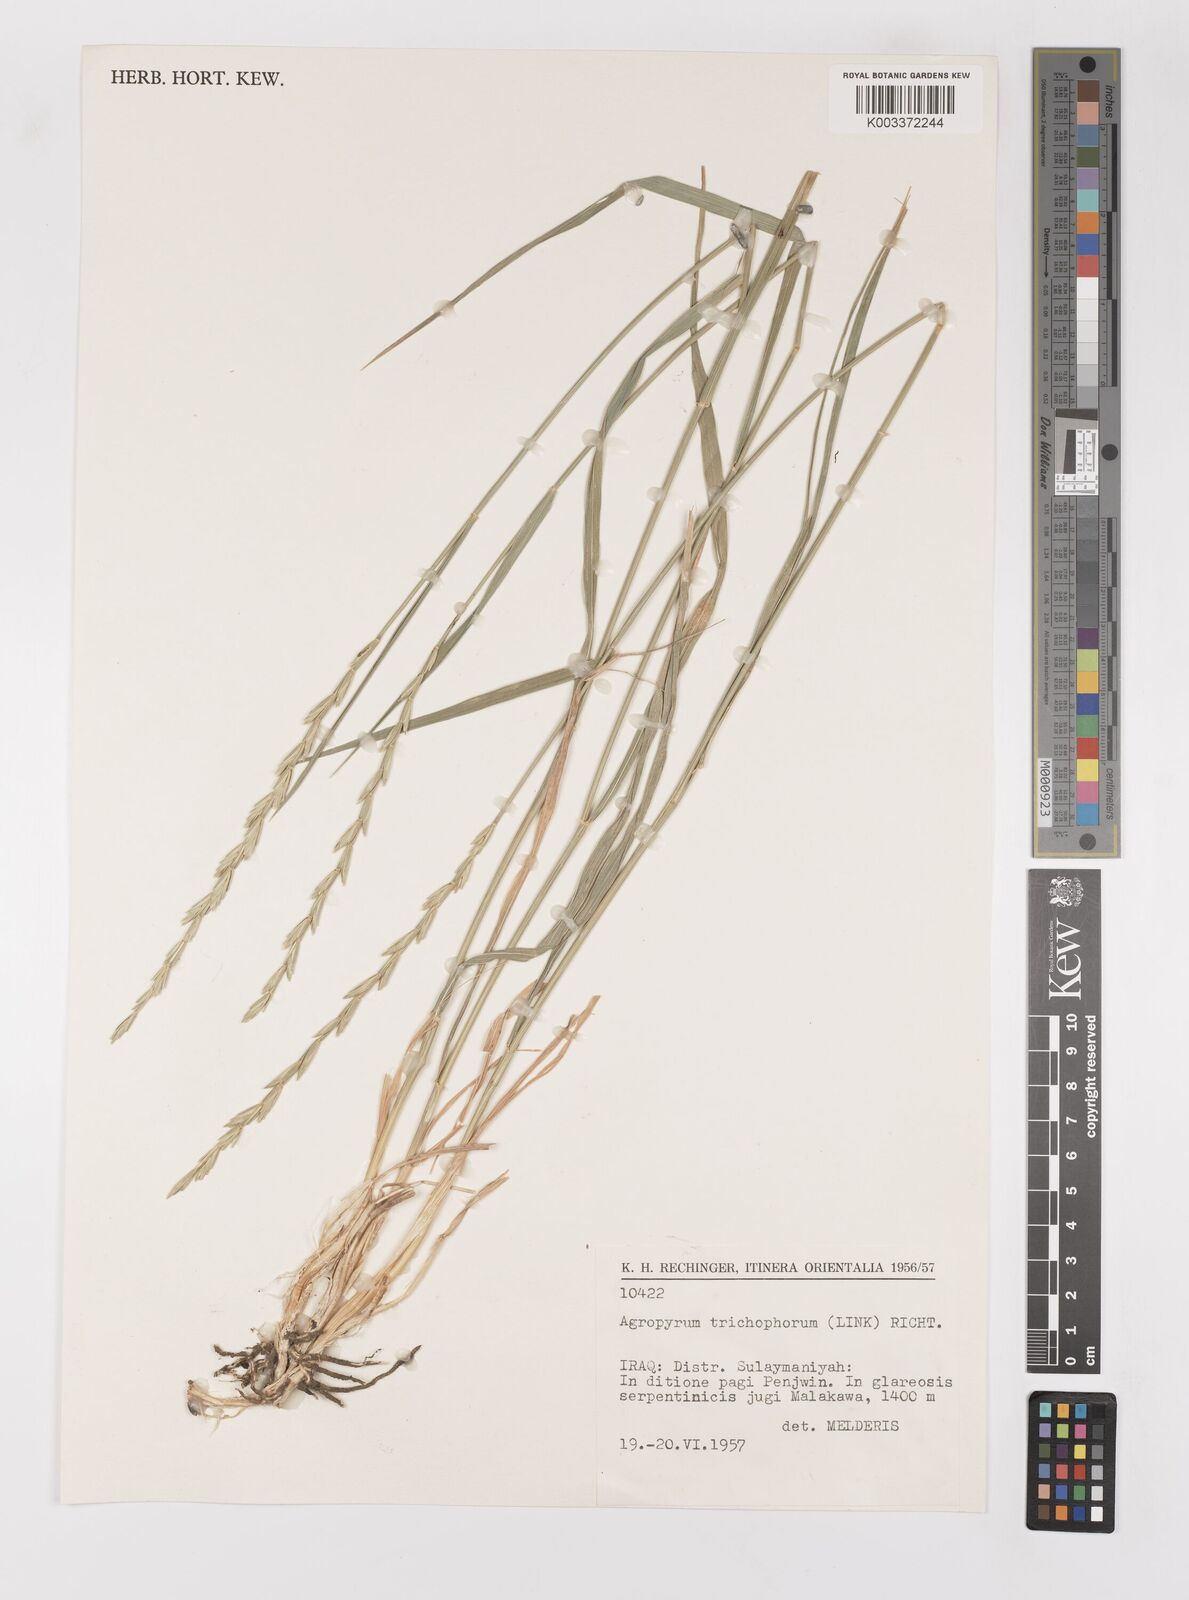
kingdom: Plantae
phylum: Tracheophyta
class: Liliopsida
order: Poales
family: Poaceae
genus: Thinopyrum
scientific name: Thinopyrum intermedium
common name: Intermediate wheatgrass
